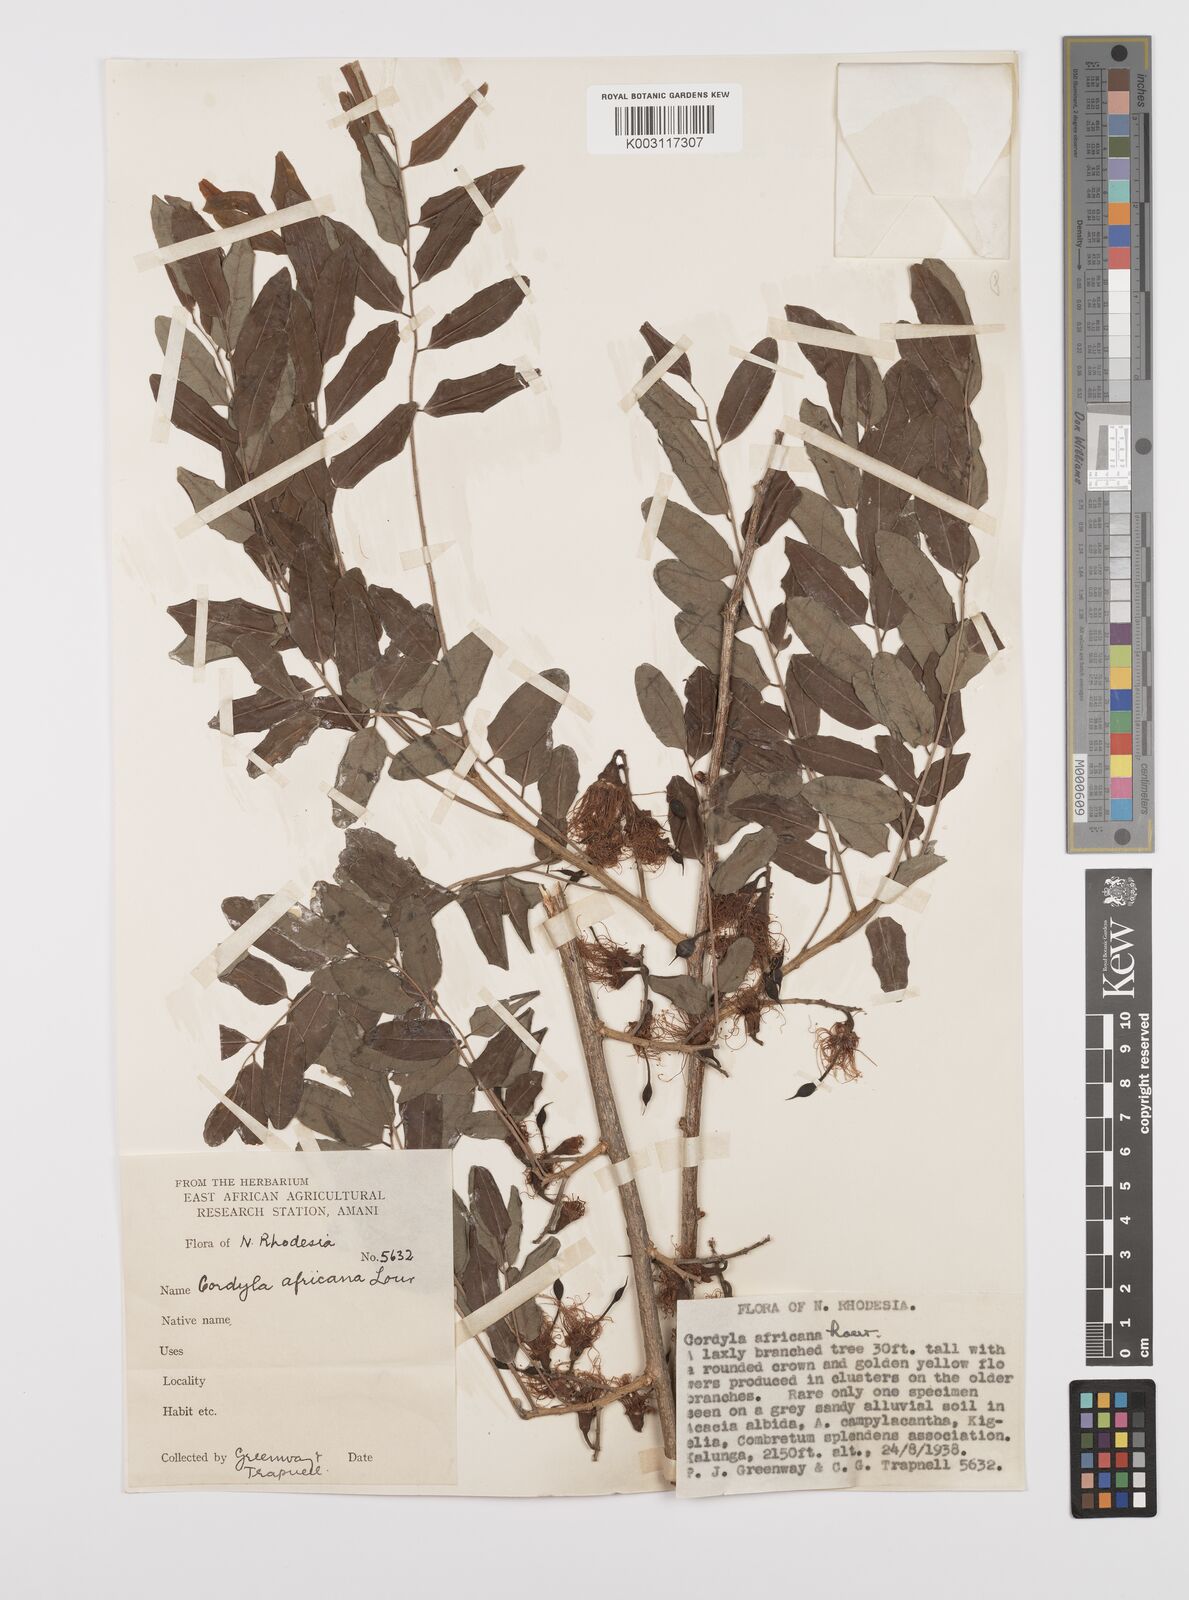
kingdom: Plantae
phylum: Tracheophyta
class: Magnoliopsida
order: Fabales
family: Fabaceae
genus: Cordyla
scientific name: Cordyla africana
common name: Wild mango
